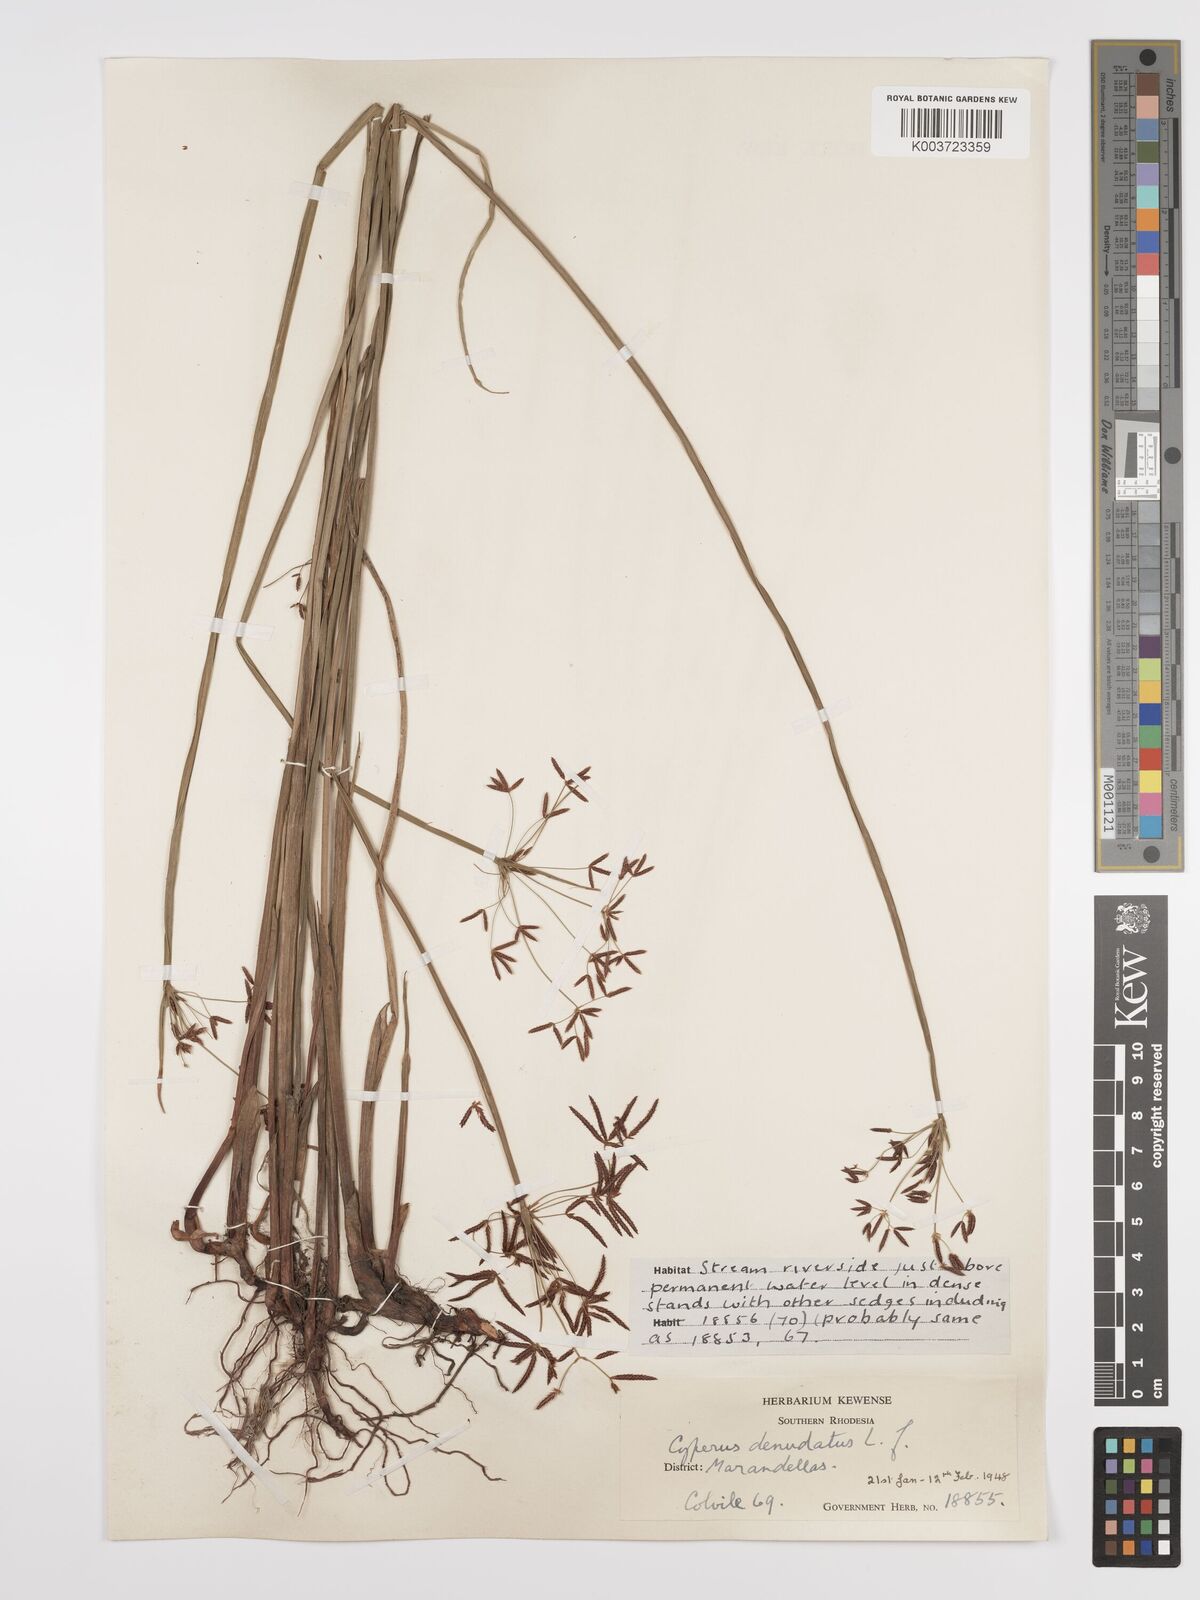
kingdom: Plantae
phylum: Tracheophyta
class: Liliopsida
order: Poales
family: Cyperaceae
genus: Cyperus
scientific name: Cyperus denudatus
